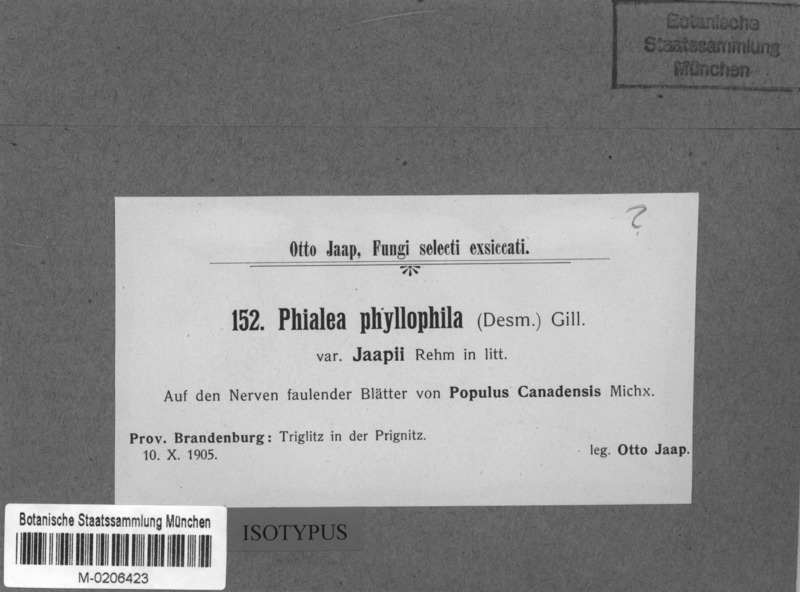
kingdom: Fungi
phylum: Ascomycota
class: Leotiomycetes
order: Helotiales
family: Helotiaceae
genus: Hymenoscyphus
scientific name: Hymenoscyphus phyllogenus
